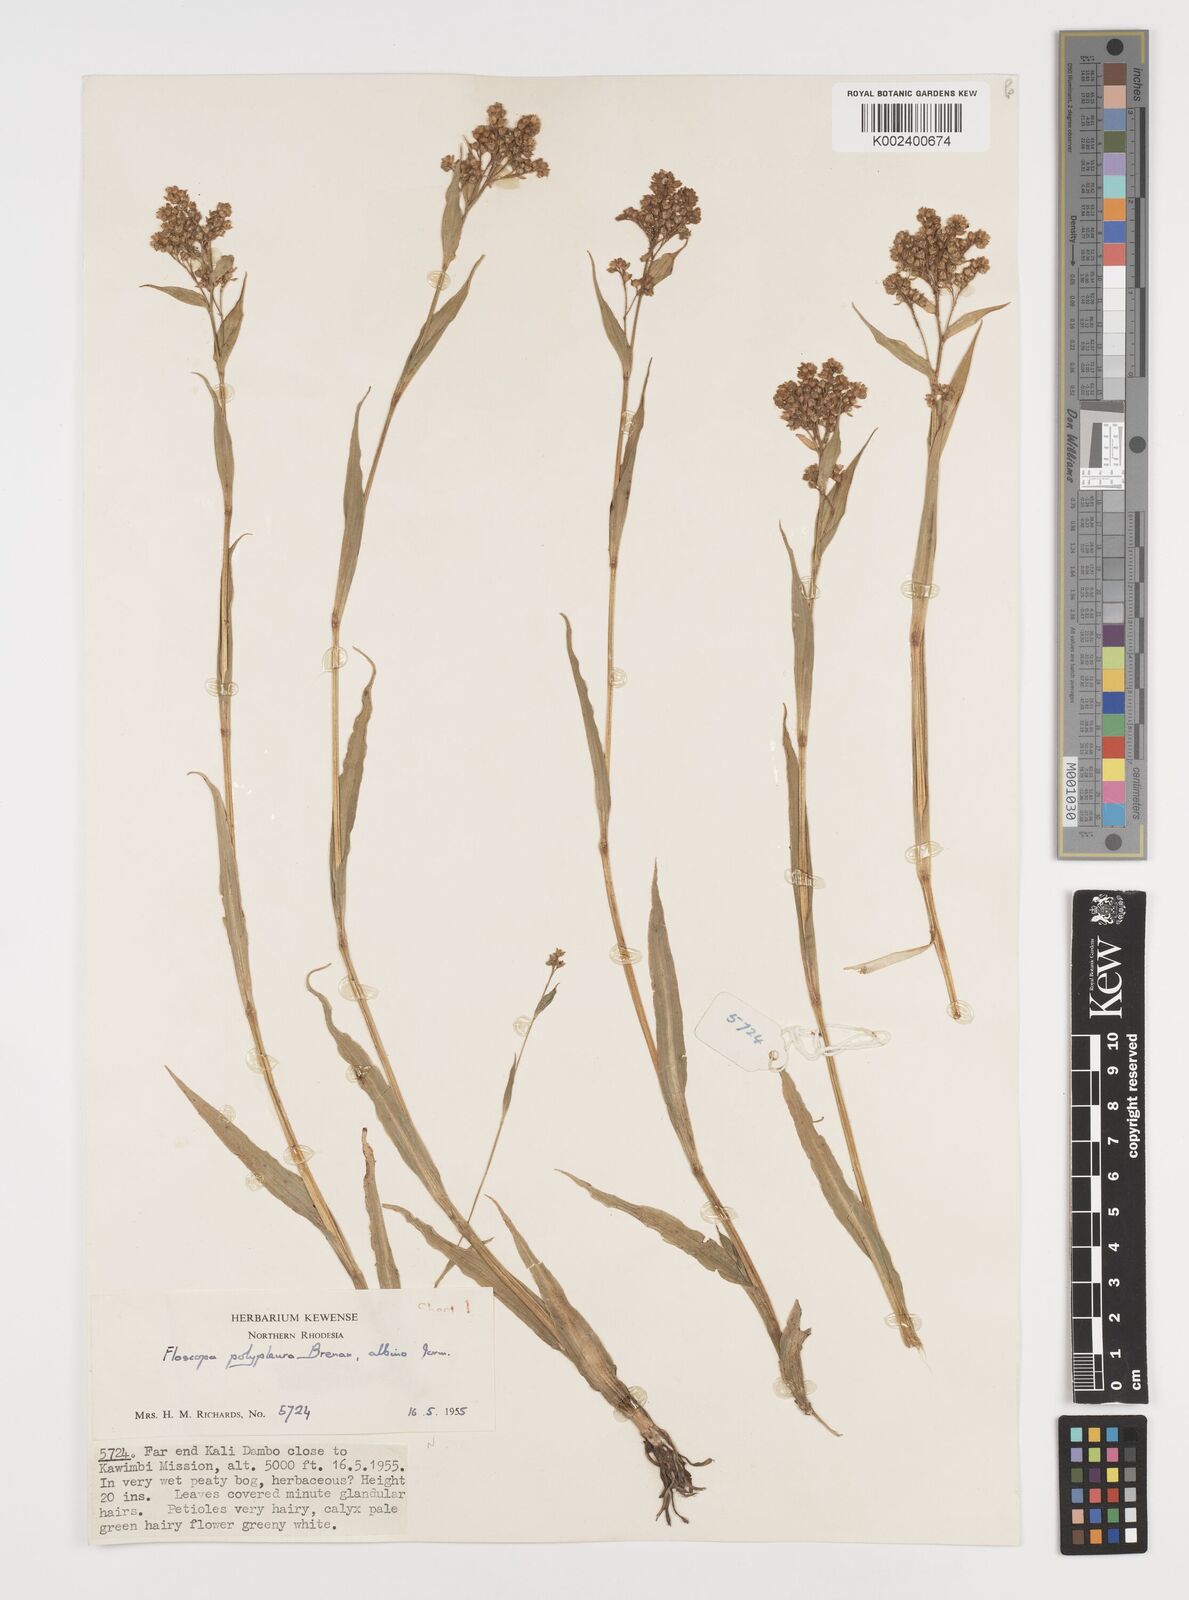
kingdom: Plantae
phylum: Tracheophyta
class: Liliopsida
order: Commelinales
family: Commelinaceae
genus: Floscopa
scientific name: Floscopa polypleura
